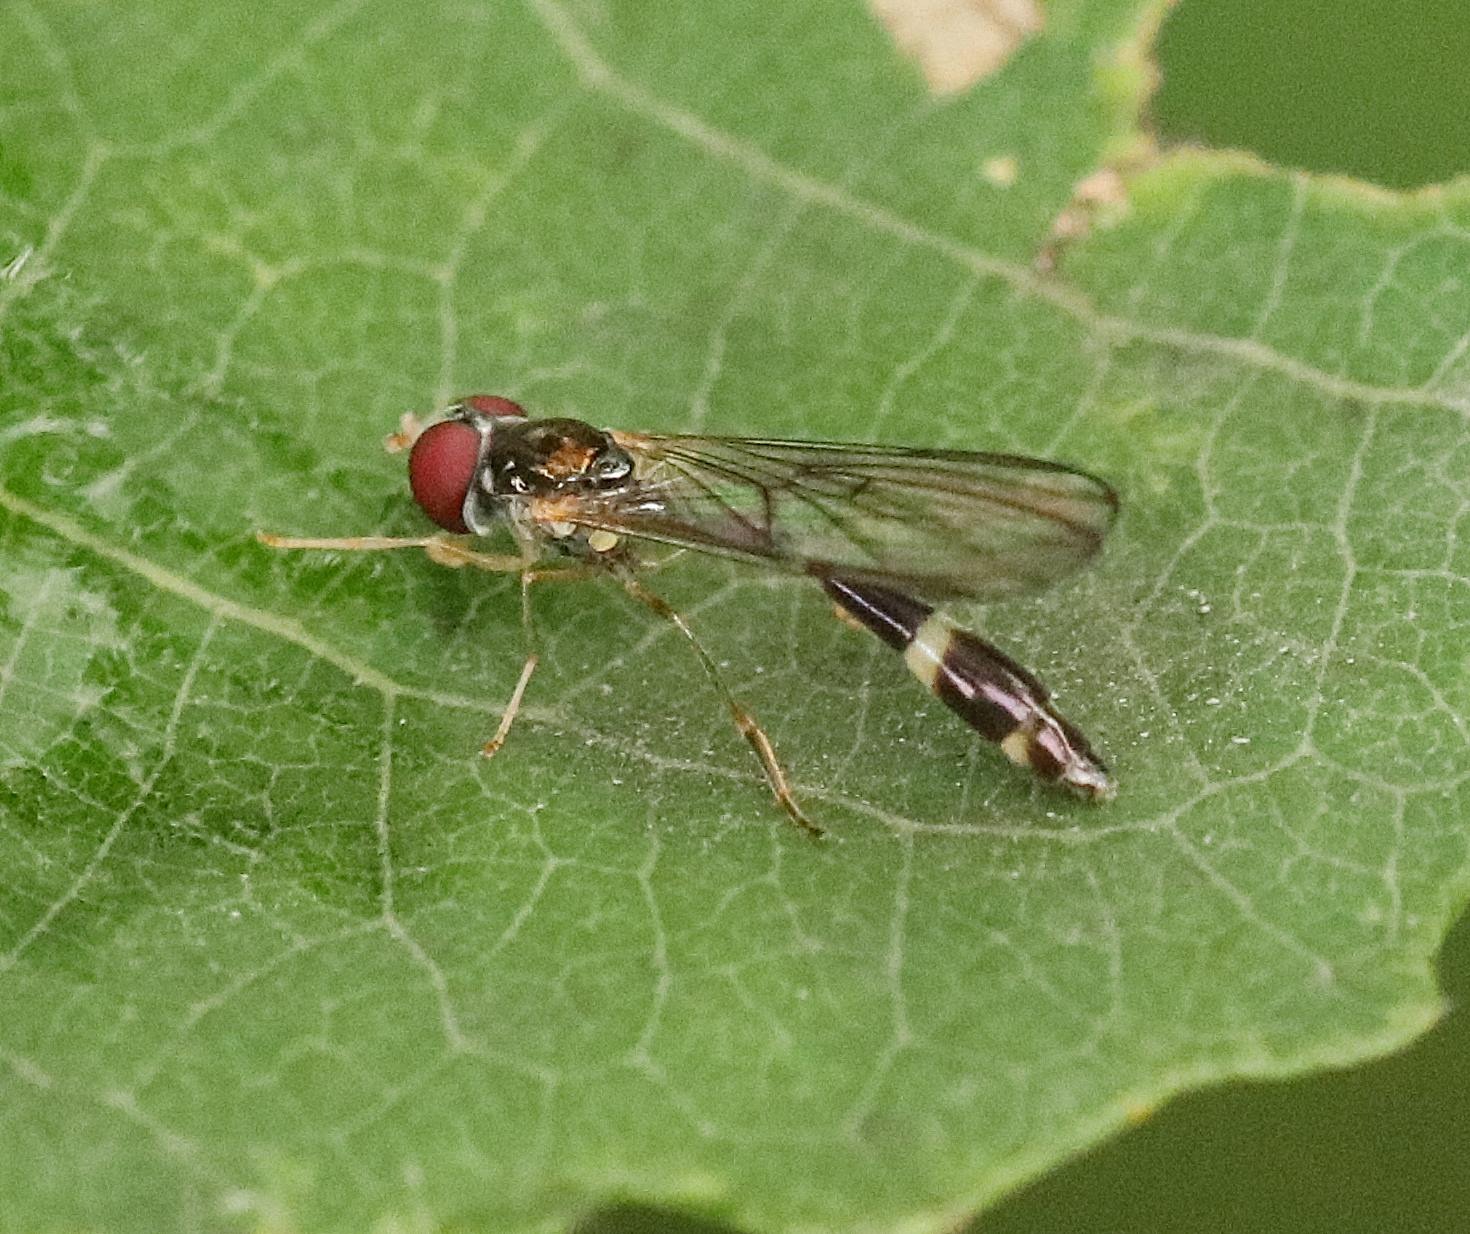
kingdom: Animalia
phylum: Arthropoda
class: Insecta
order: Diptera
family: Syrphidae
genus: Baccha
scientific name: Baccha elongata
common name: Mat spydsvirreflue
